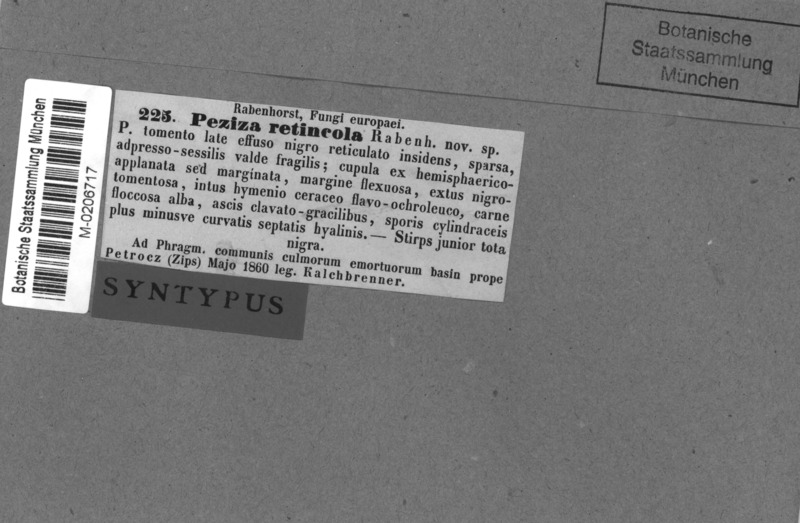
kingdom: Fungi
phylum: Ascomycota
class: Leotiomycetes
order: Helotiales
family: Mollisiaceae
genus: Trichobelonium
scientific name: Trichobelonium kneiffii
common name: Reed mat disco
